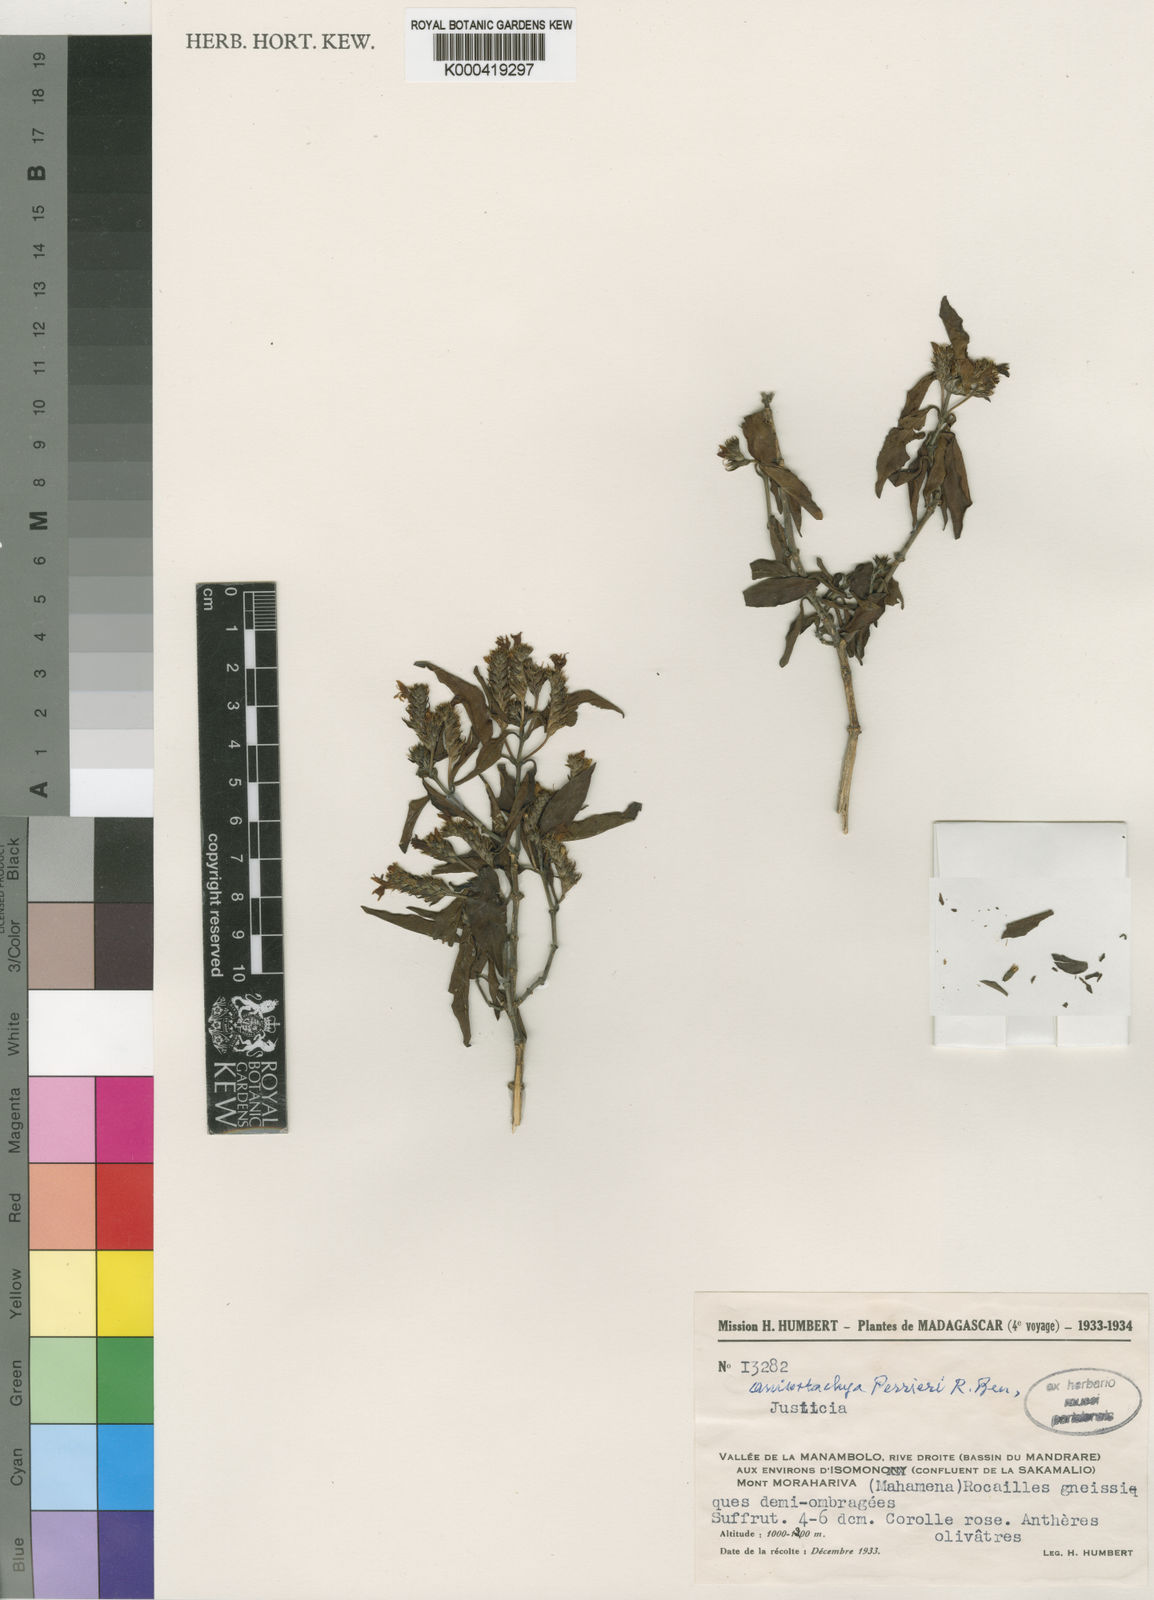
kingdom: Plantae
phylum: Tracheophyta
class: Magnoliopsida
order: Lamiales
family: Acanthaceae
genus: Justicia
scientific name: Justicia
